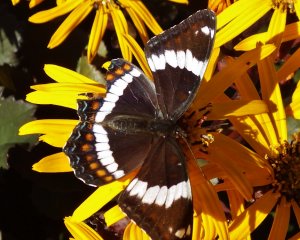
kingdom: Animalia
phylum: Arthropoda
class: Insecta
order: Lepidoptera
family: Nymphalidae
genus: Limenitis
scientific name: Limenitis arthemis
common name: Red-spotted Admiral
